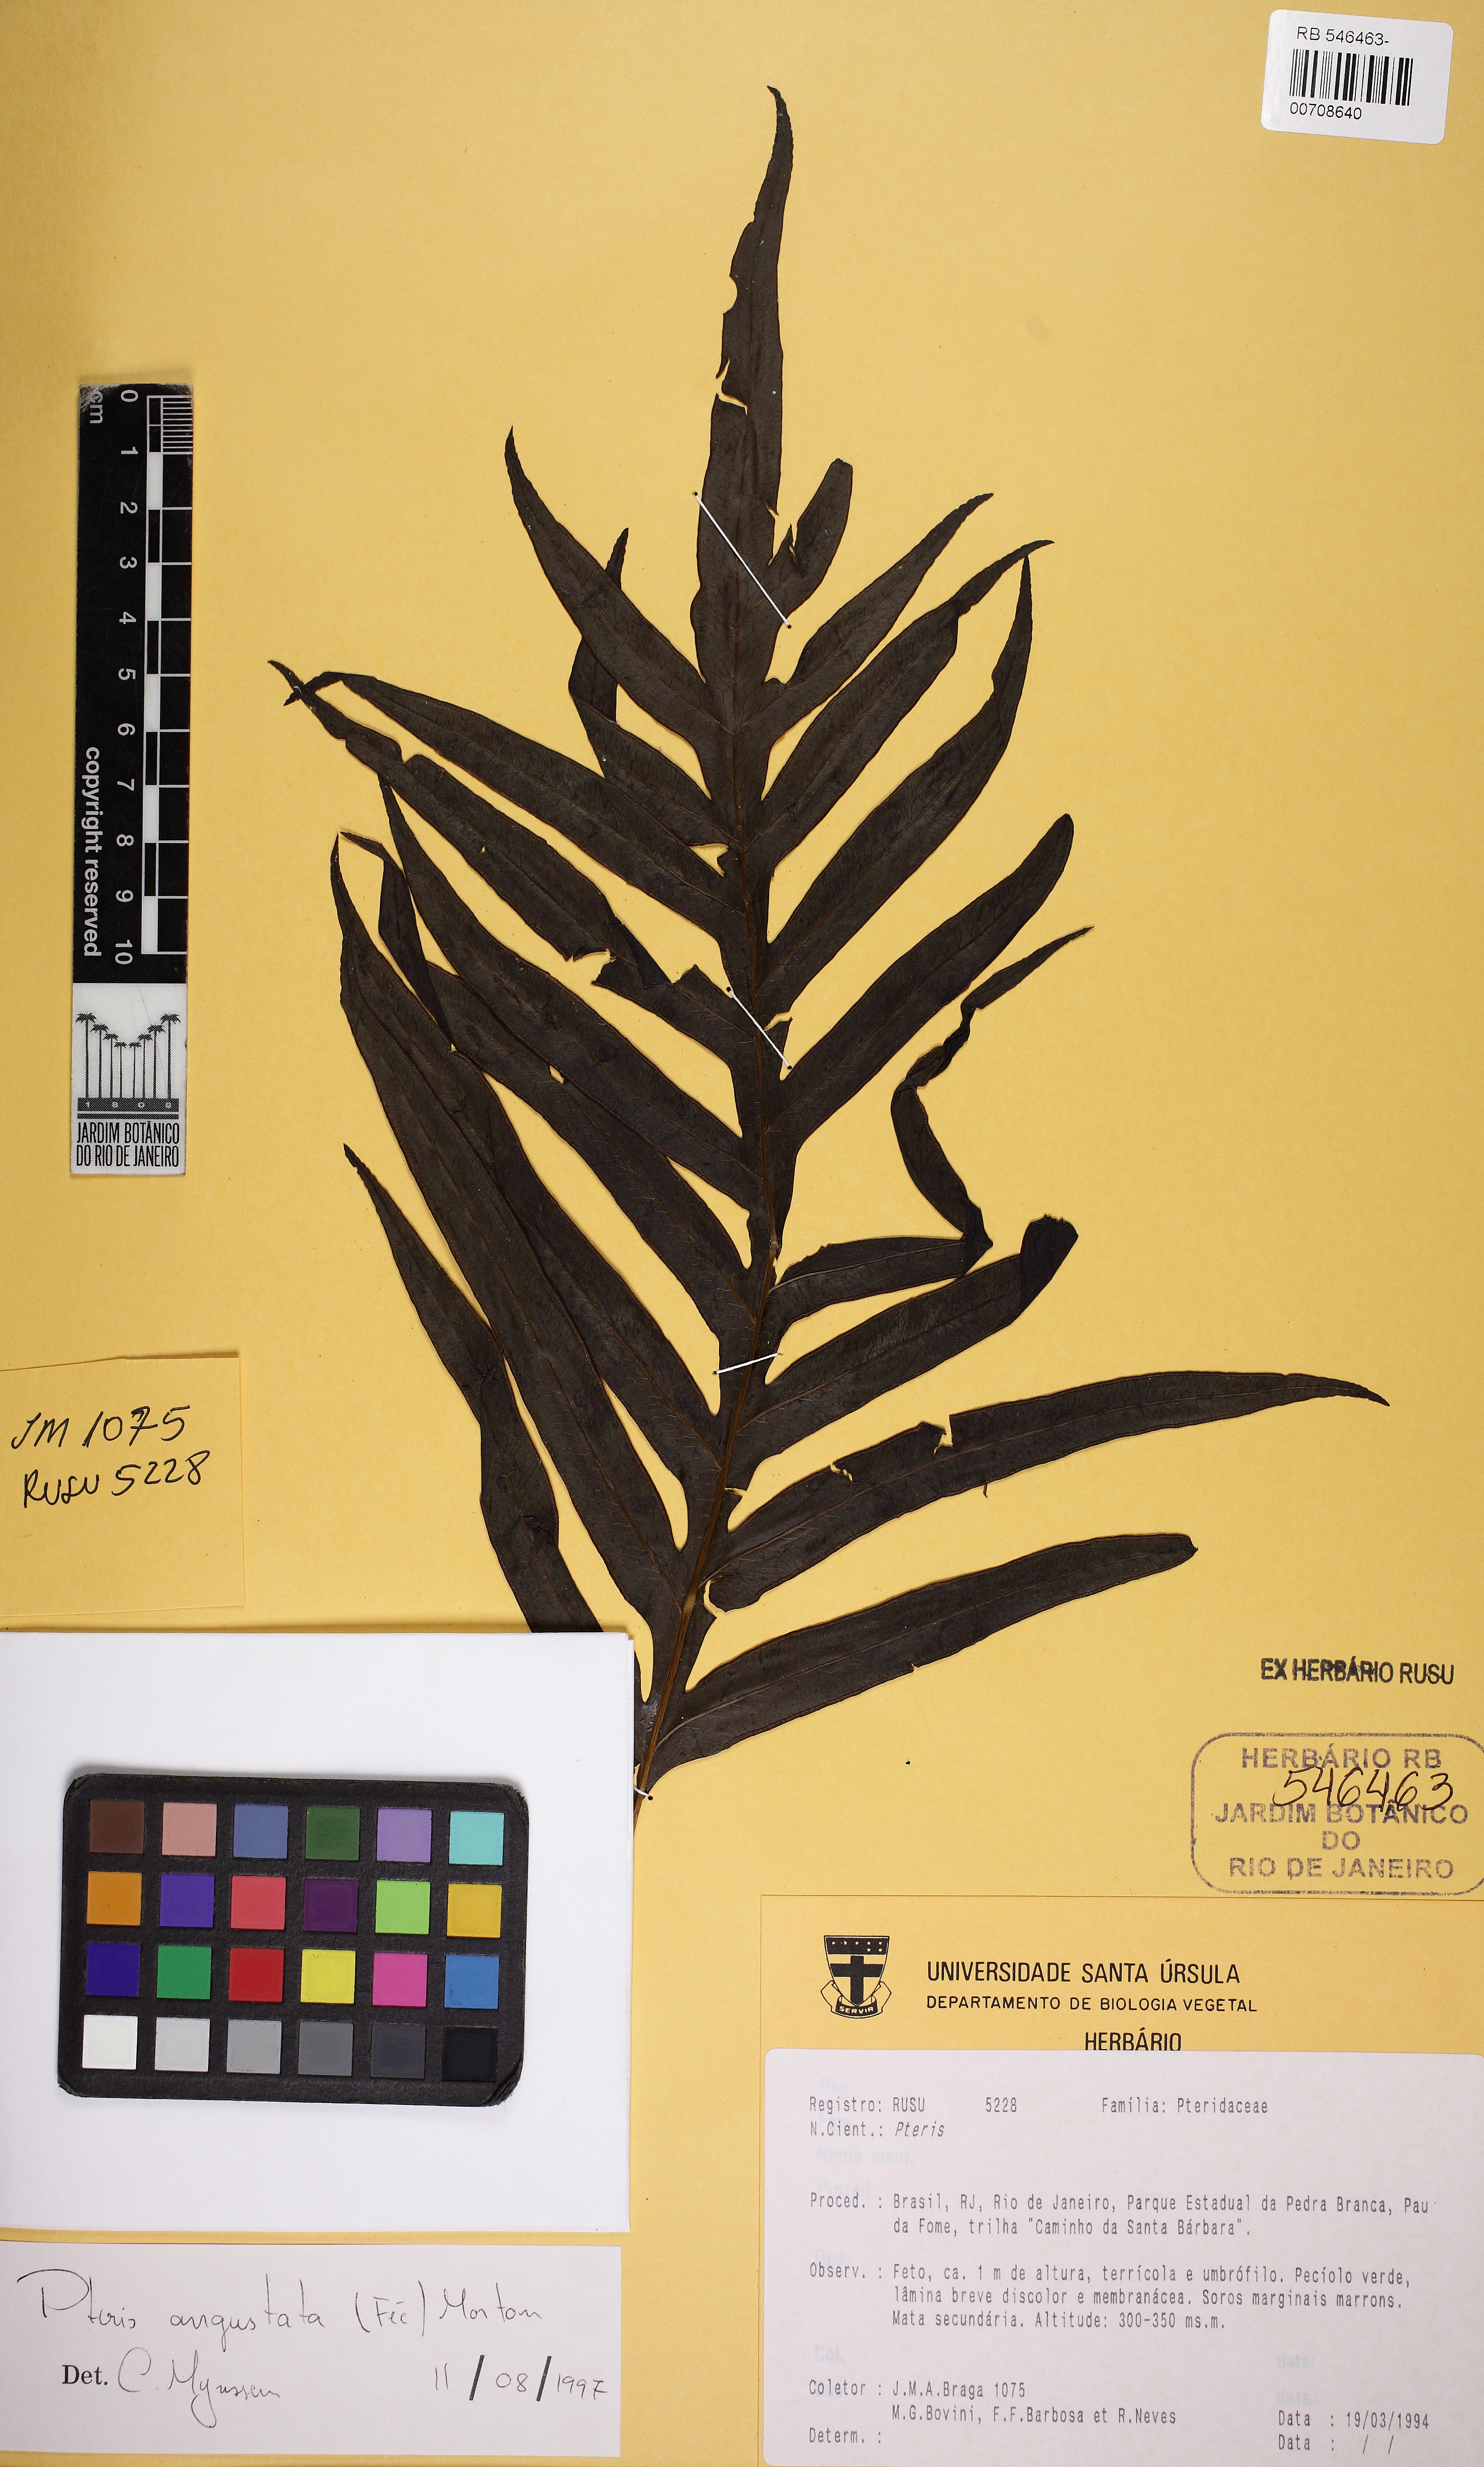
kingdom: Plantae
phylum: Tracheophyta
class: Polypodiopsida
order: Polypodiales
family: Pteridaceae
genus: Pteris
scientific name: Pteris angustata
